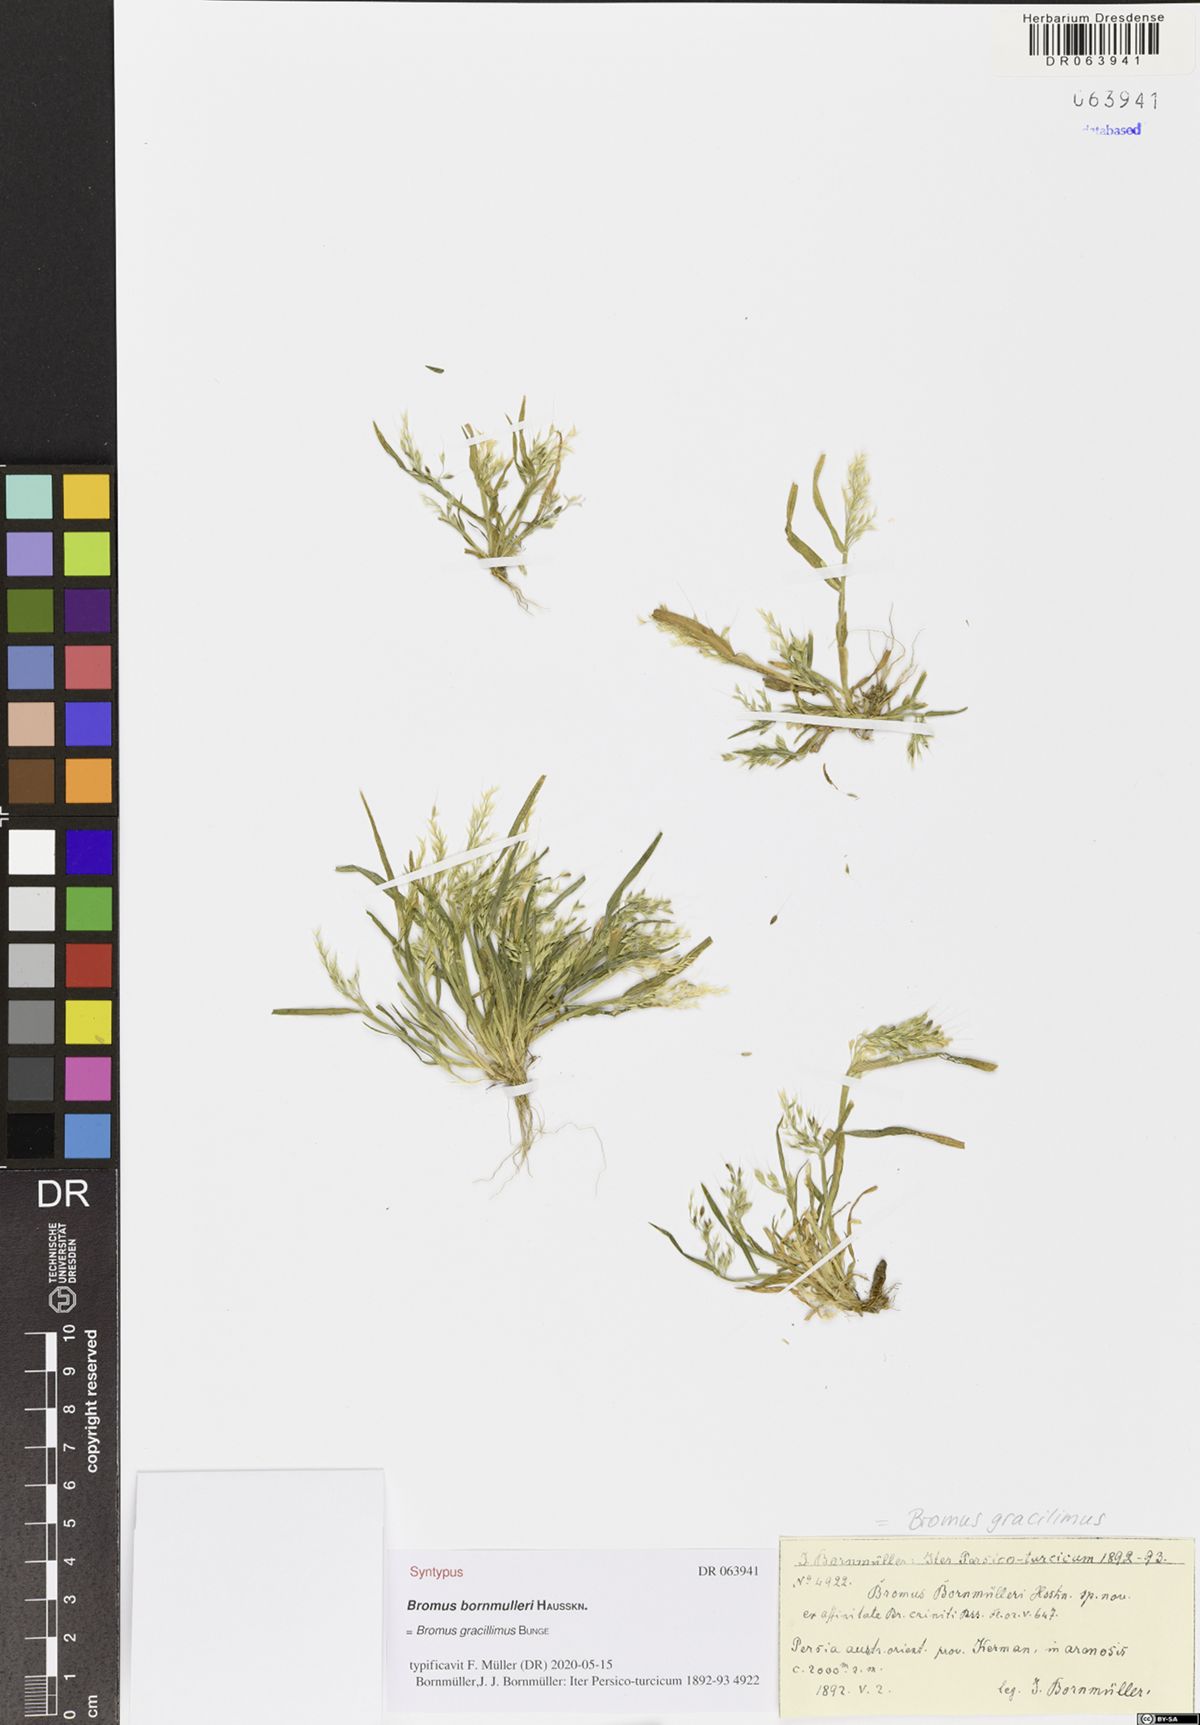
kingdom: Plantae
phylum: Tracheophyta
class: Liliopsida
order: Poales
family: Poaceae
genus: Bromus
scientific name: Bromus gracillimus
